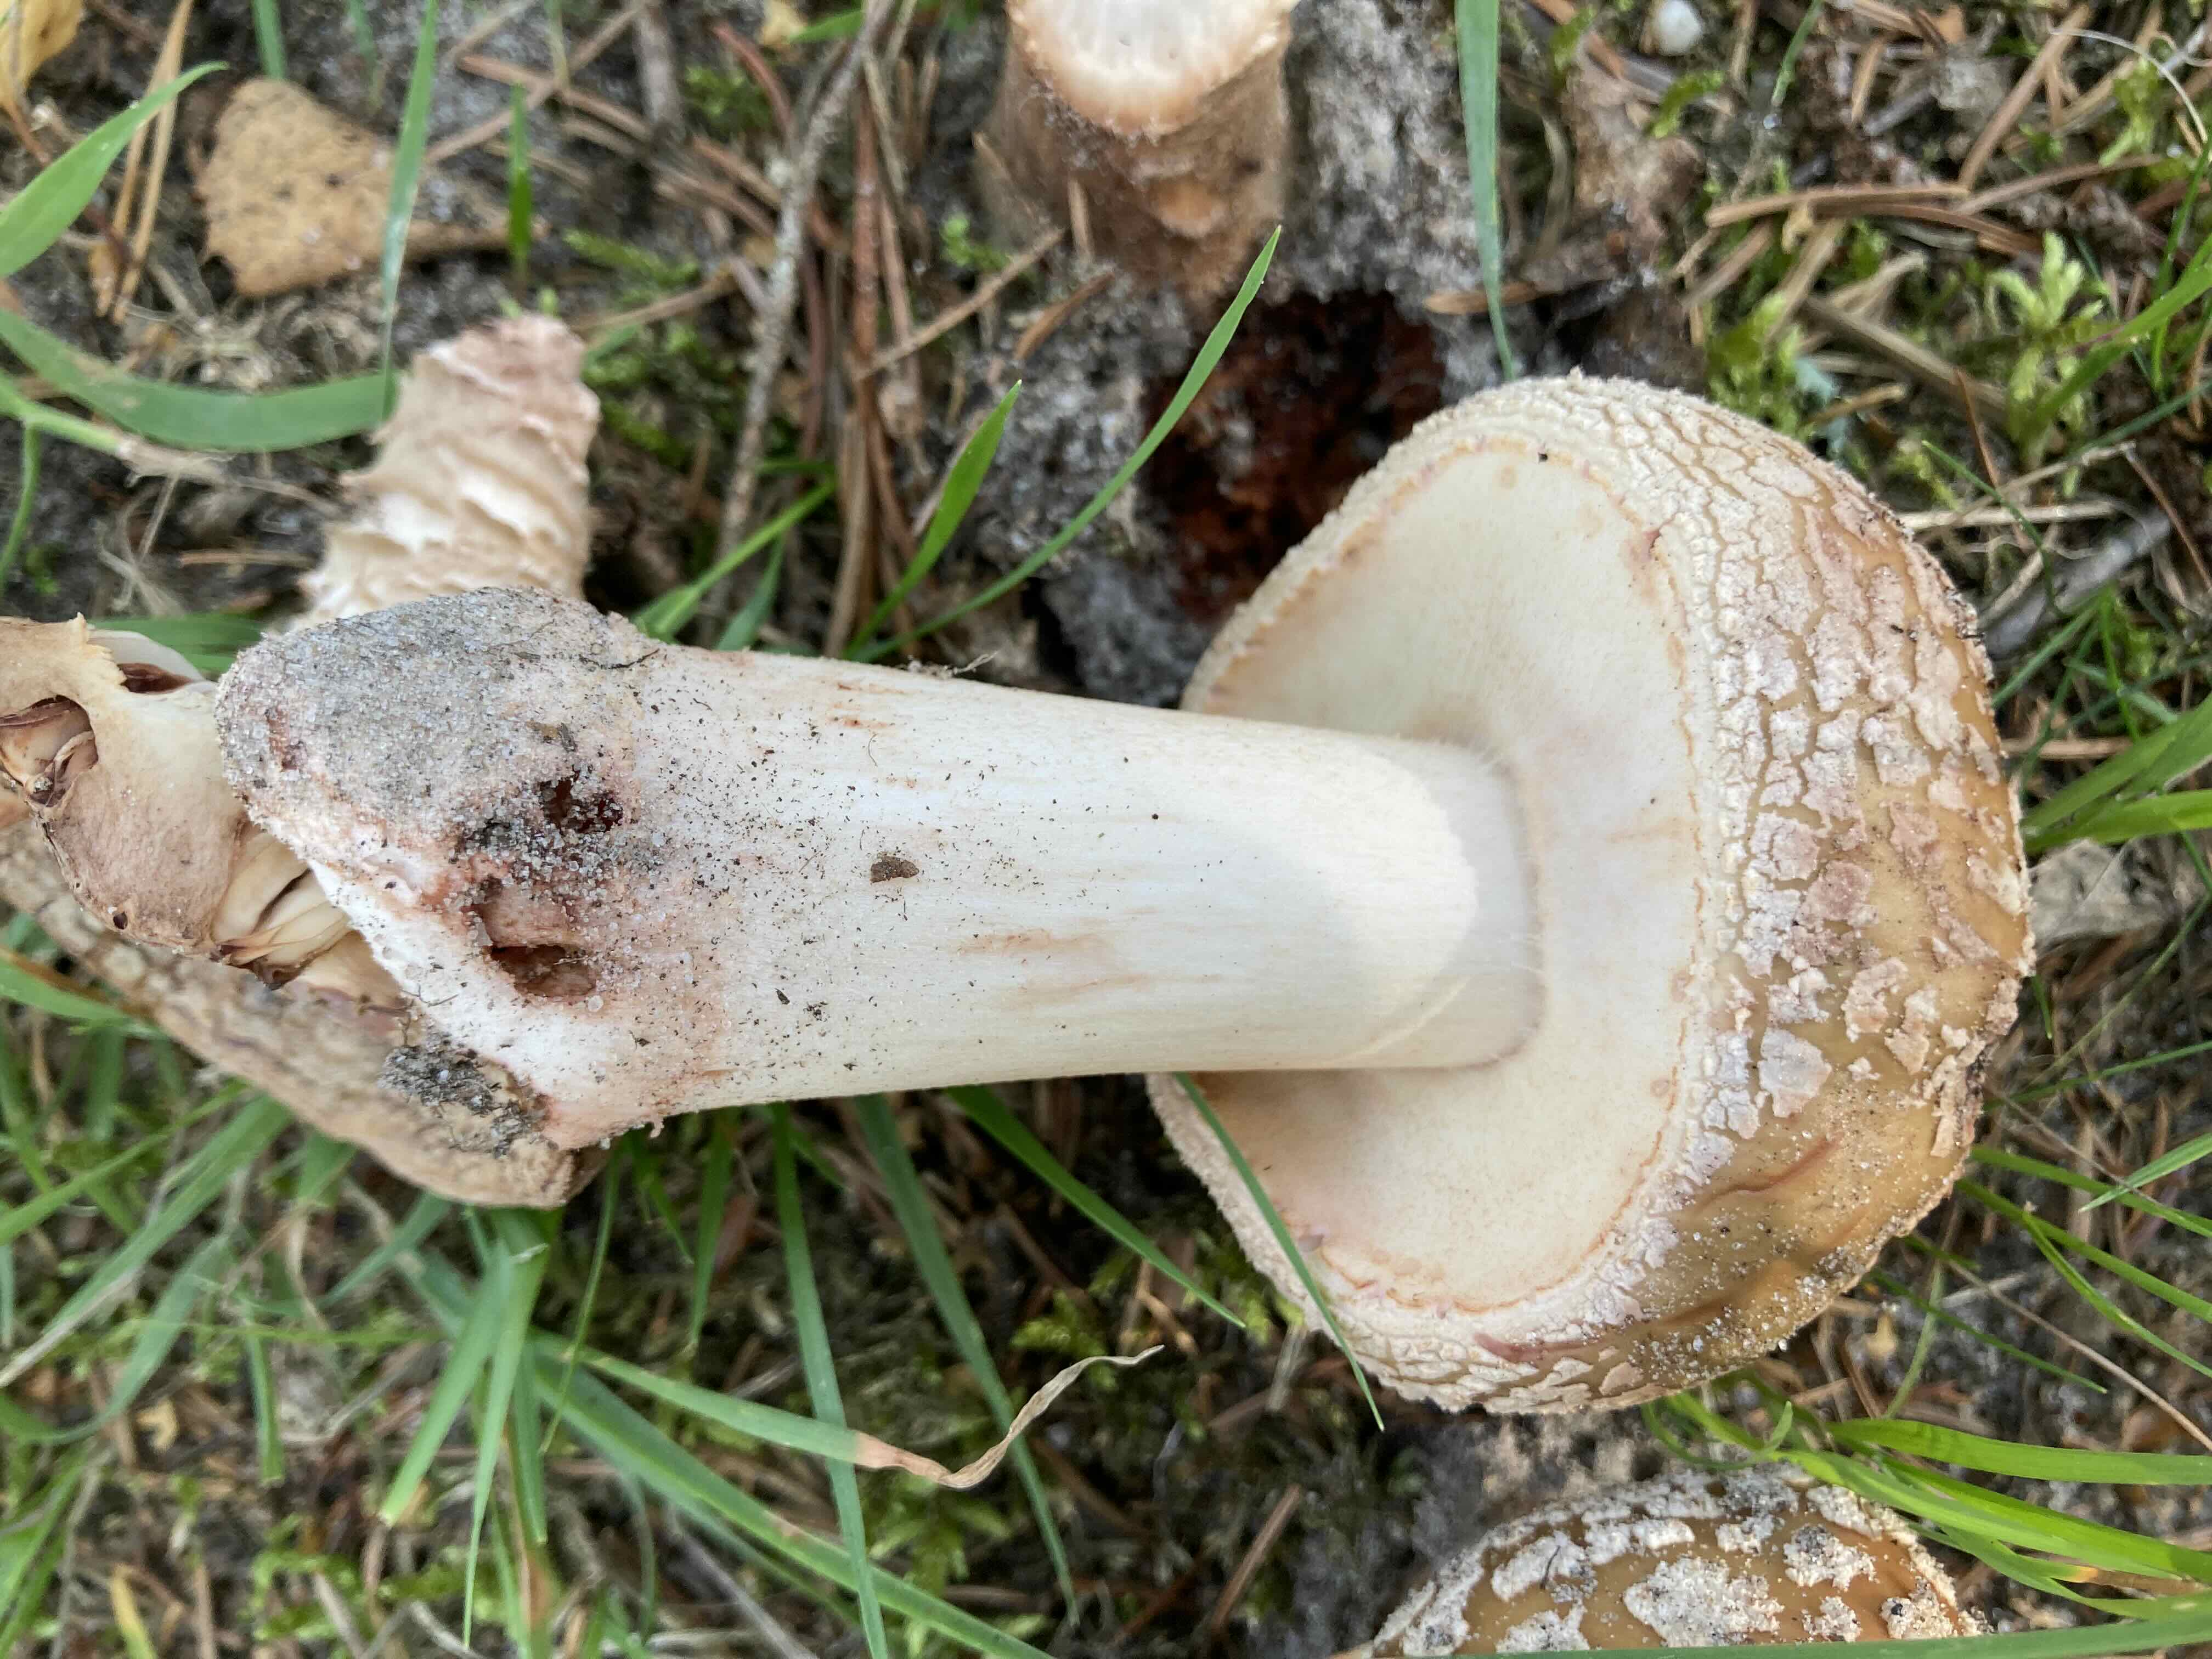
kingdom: Fungi
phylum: Basidiomycota
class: Agaricomycetes
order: Agaricales
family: Amanitaceae
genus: Amanita
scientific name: Amanita rubescens
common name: rødmende fluesvamp
